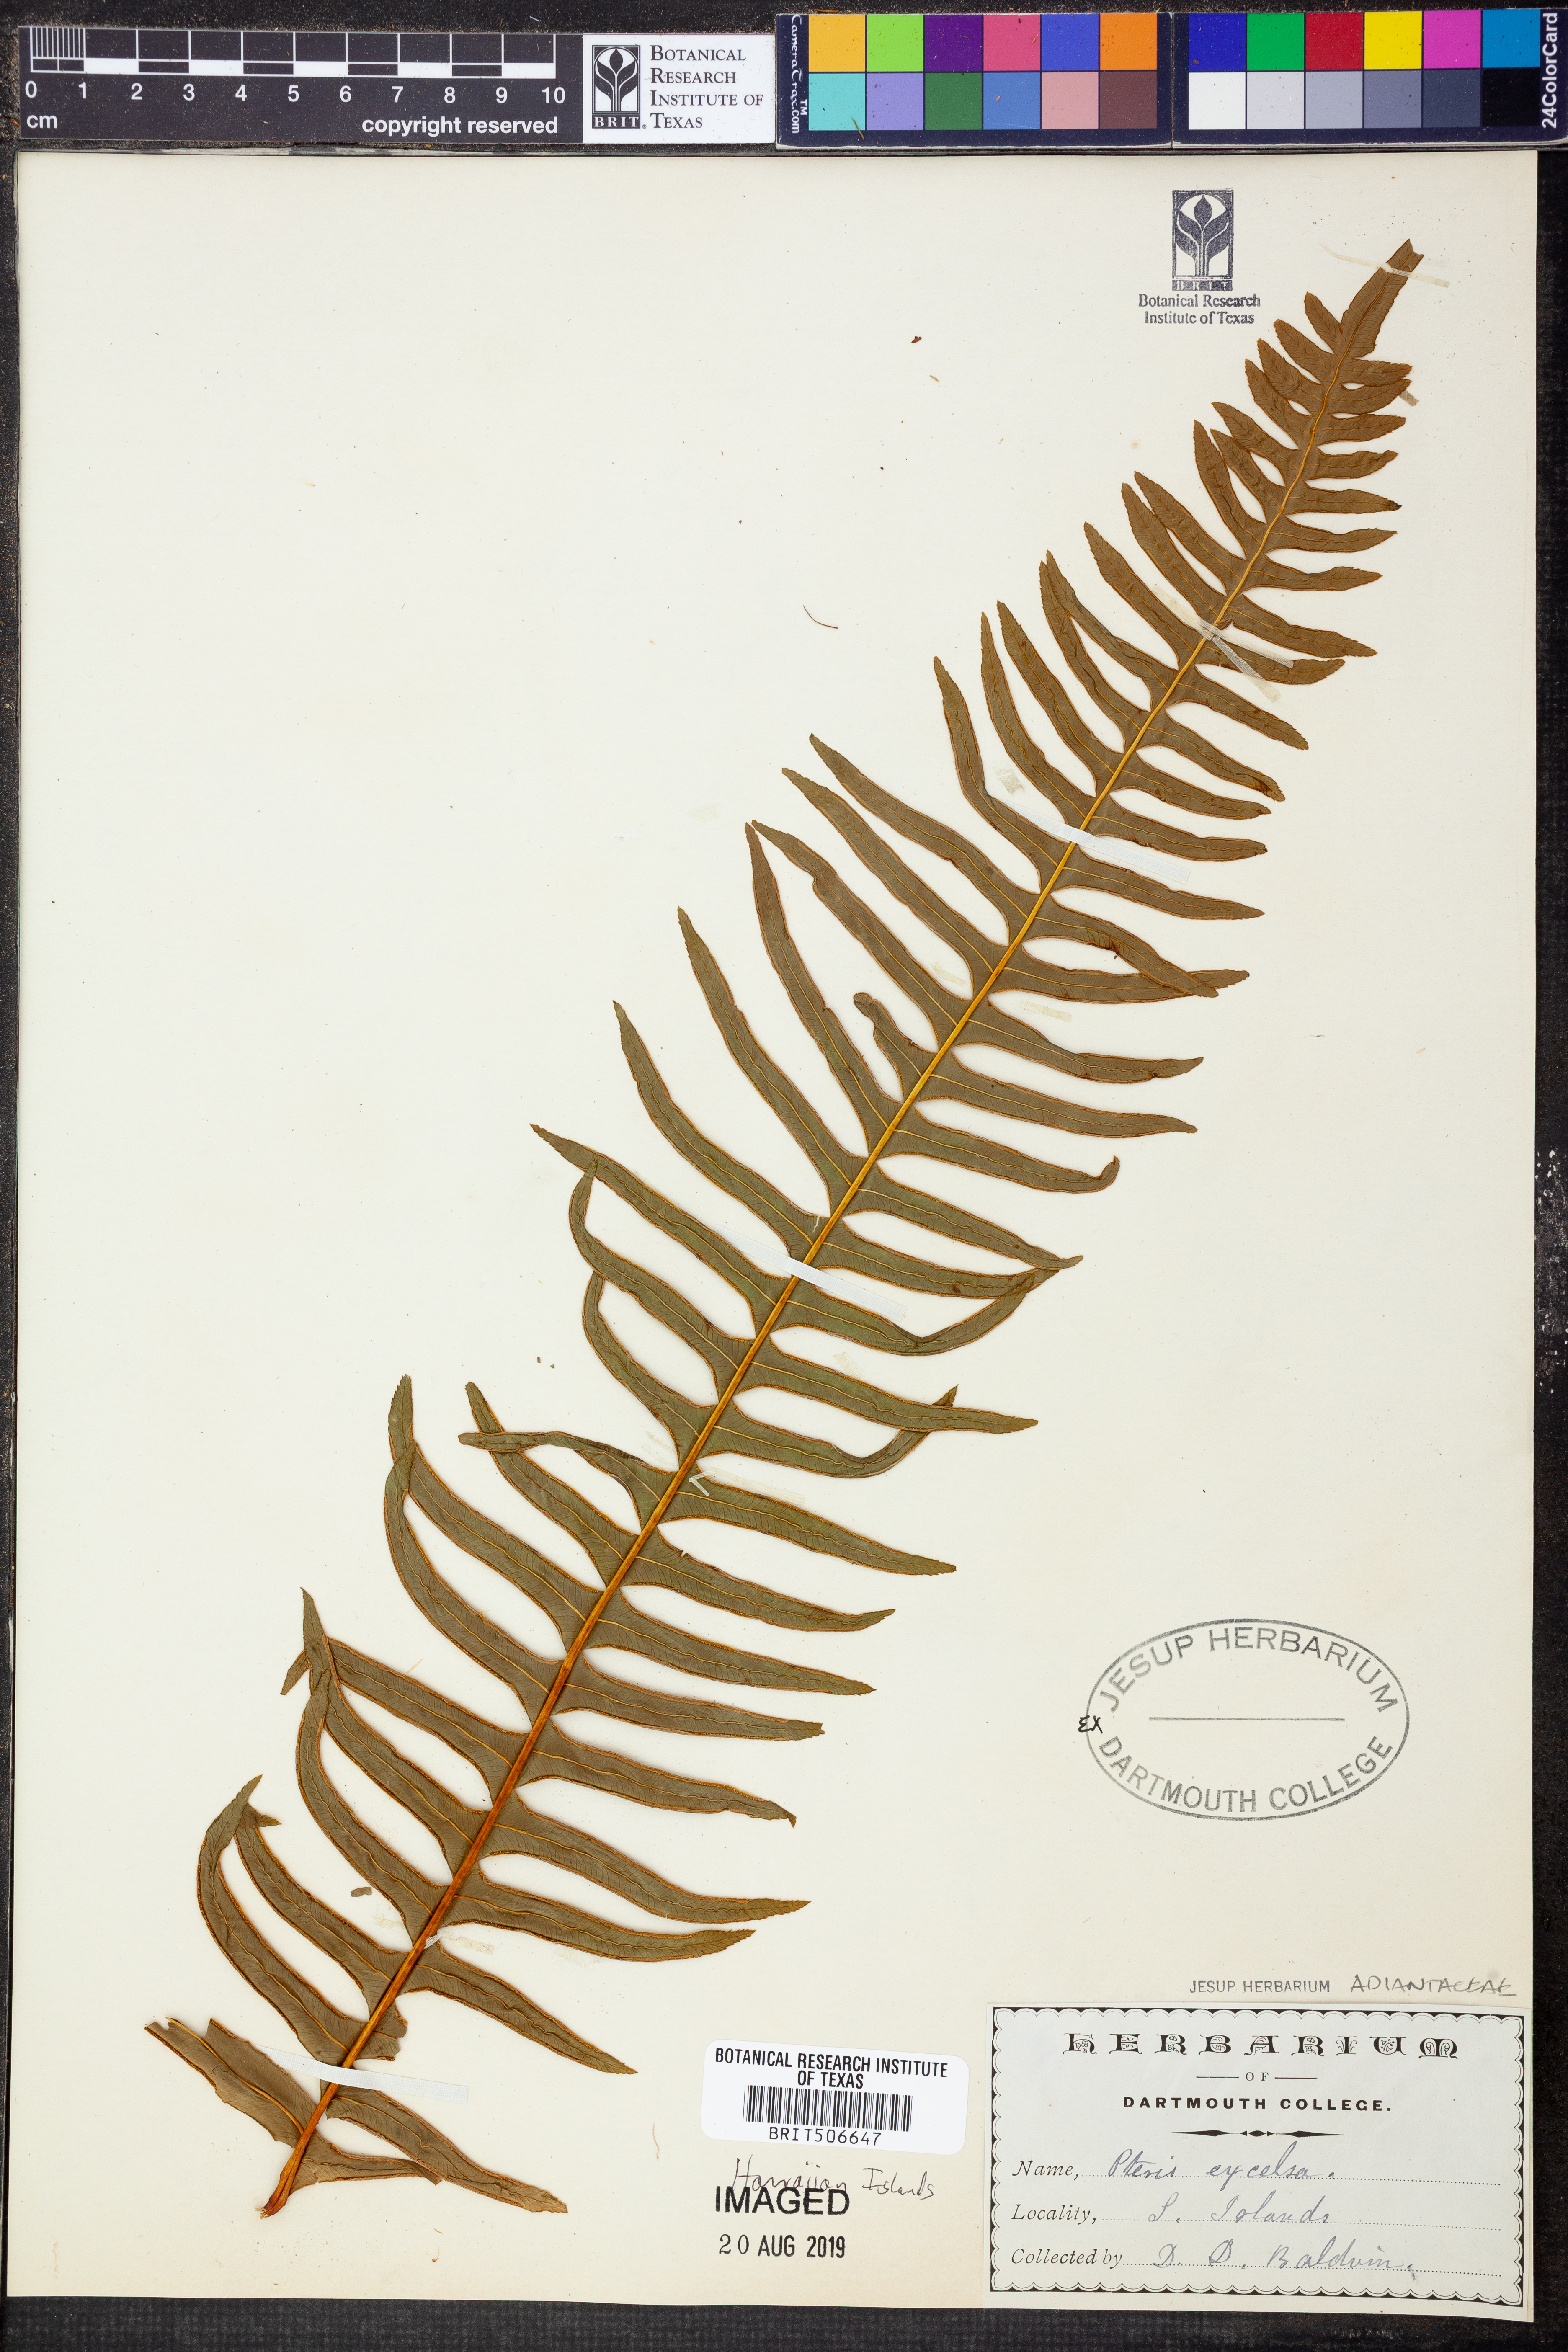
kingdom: Plantae
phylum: Tracheophyta
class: Polypodiopsida
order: Polypodiales
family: Pteridaceae
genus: Pteris
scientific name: Pteris terminalis
